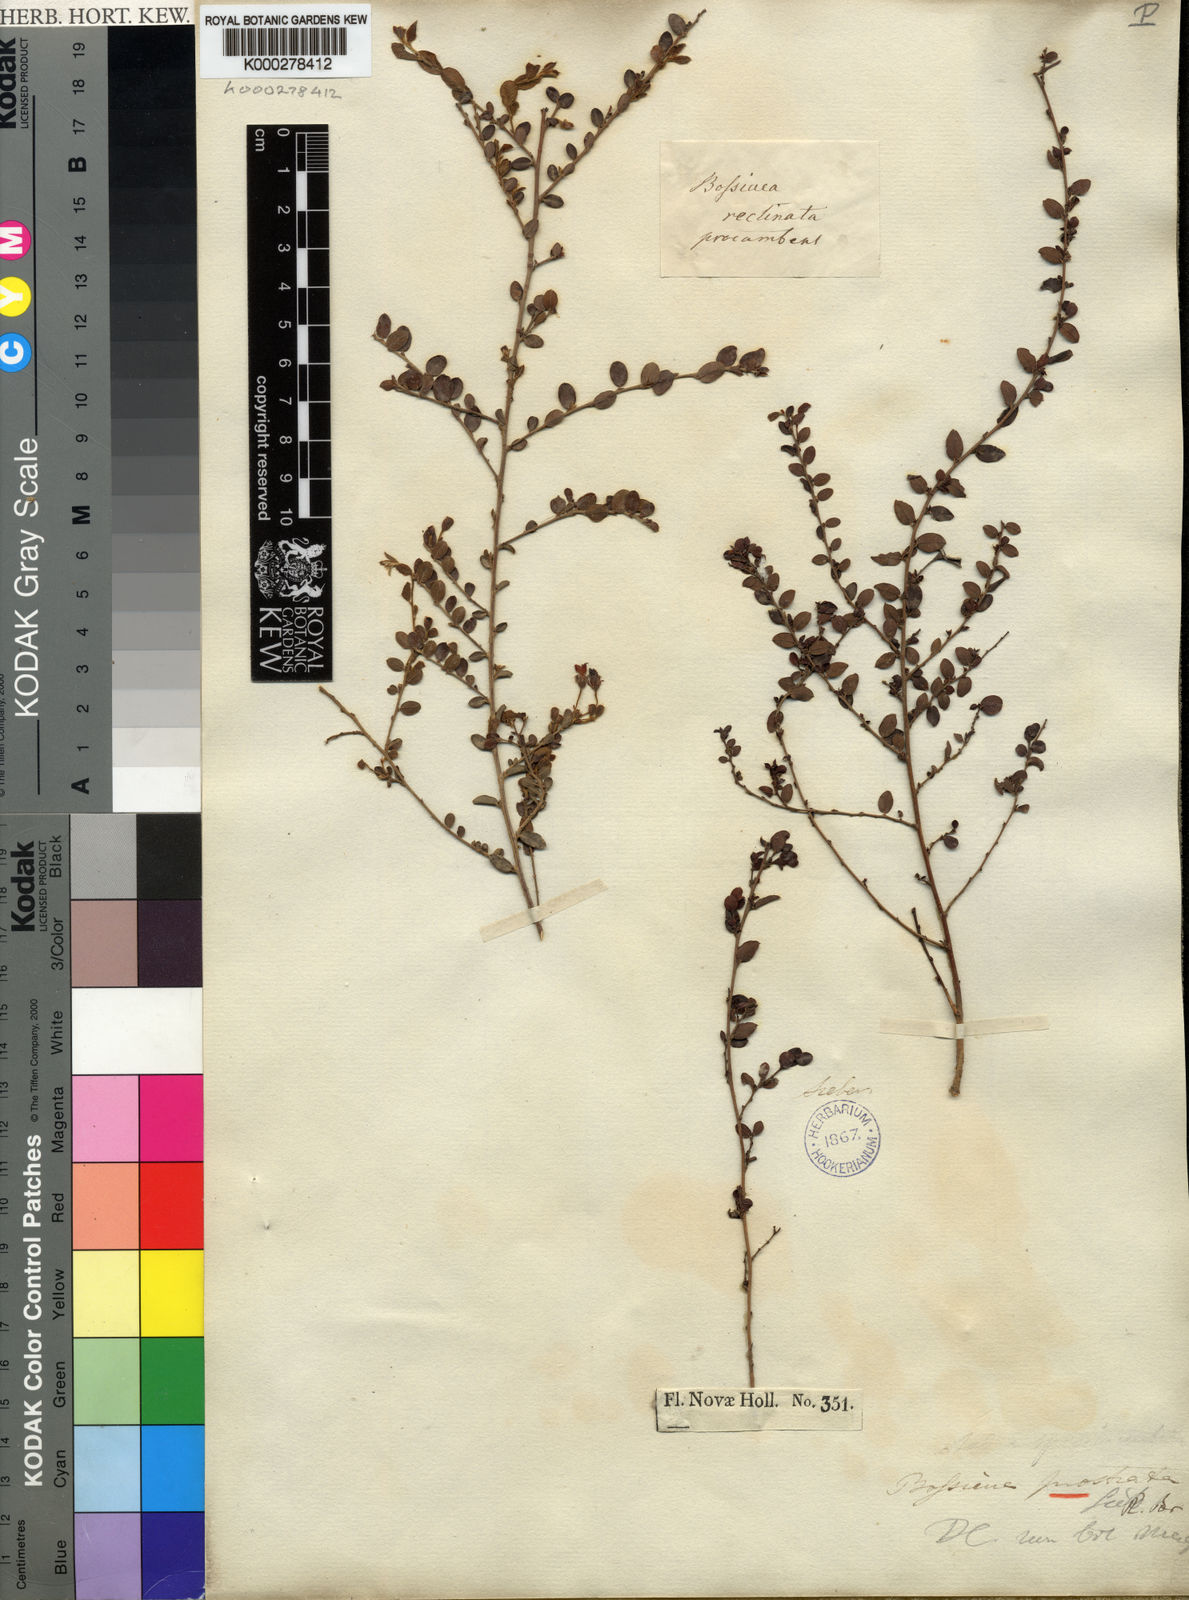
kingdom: Plantae
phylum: Tracheophyta
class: Magnoliopsida
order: Fabales
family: Fabaceae
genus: Bossiaea
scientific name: Bossiaea prostrata
